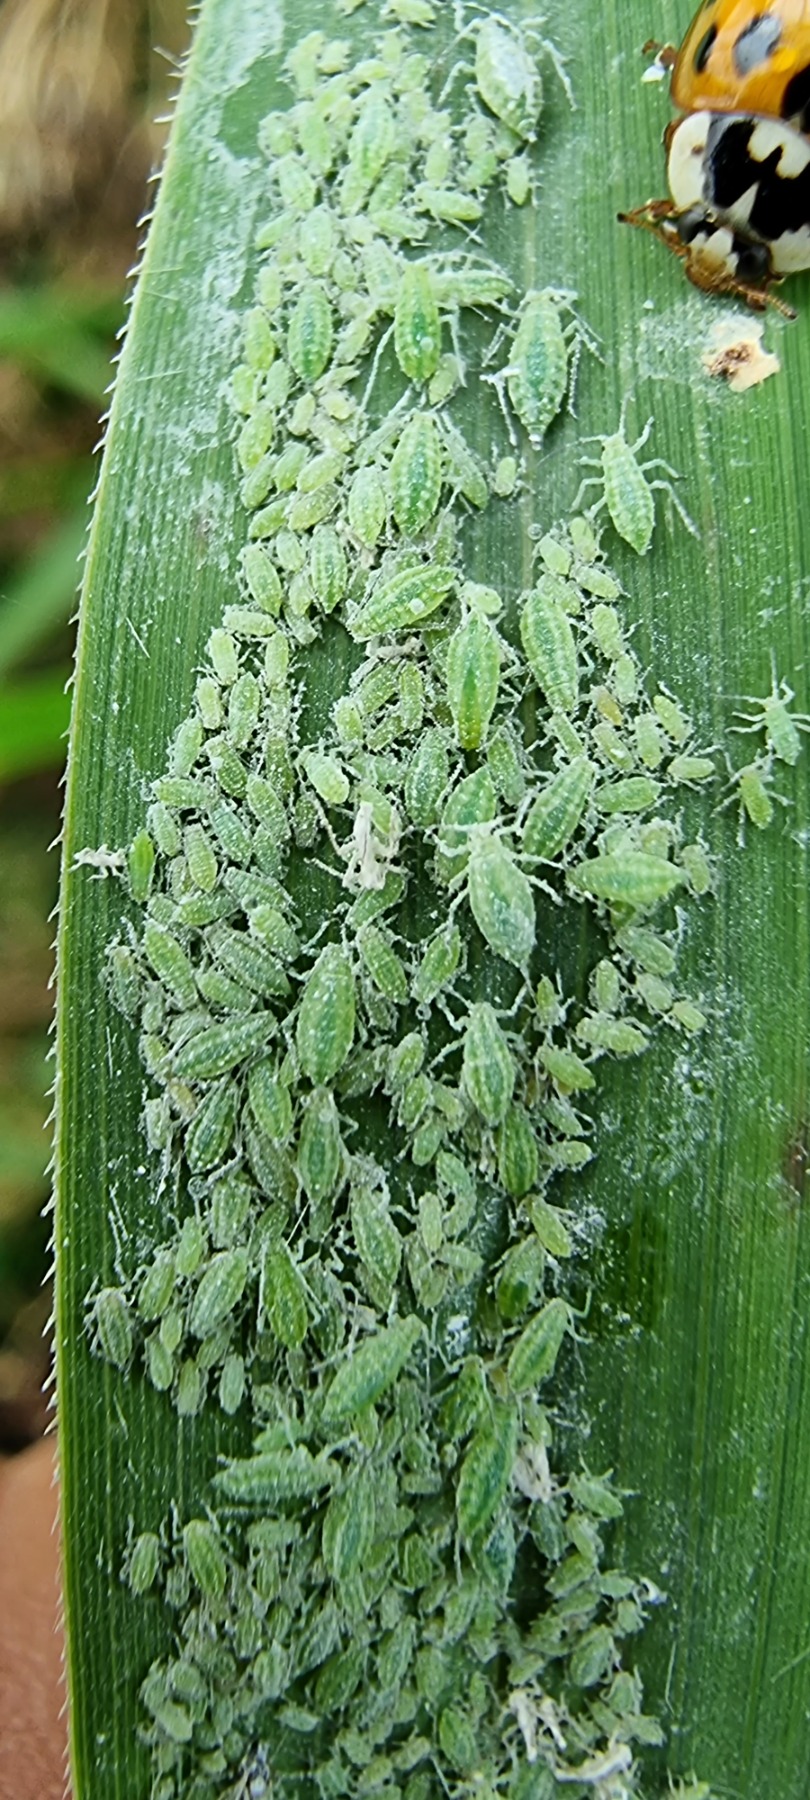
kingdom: Animalia
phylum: Arthropoda
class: Insecta
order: Hemiptera
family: Aphididae
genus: Hyalopterus
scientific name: Hyalopterus pruni
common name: Melet blommebladlus
